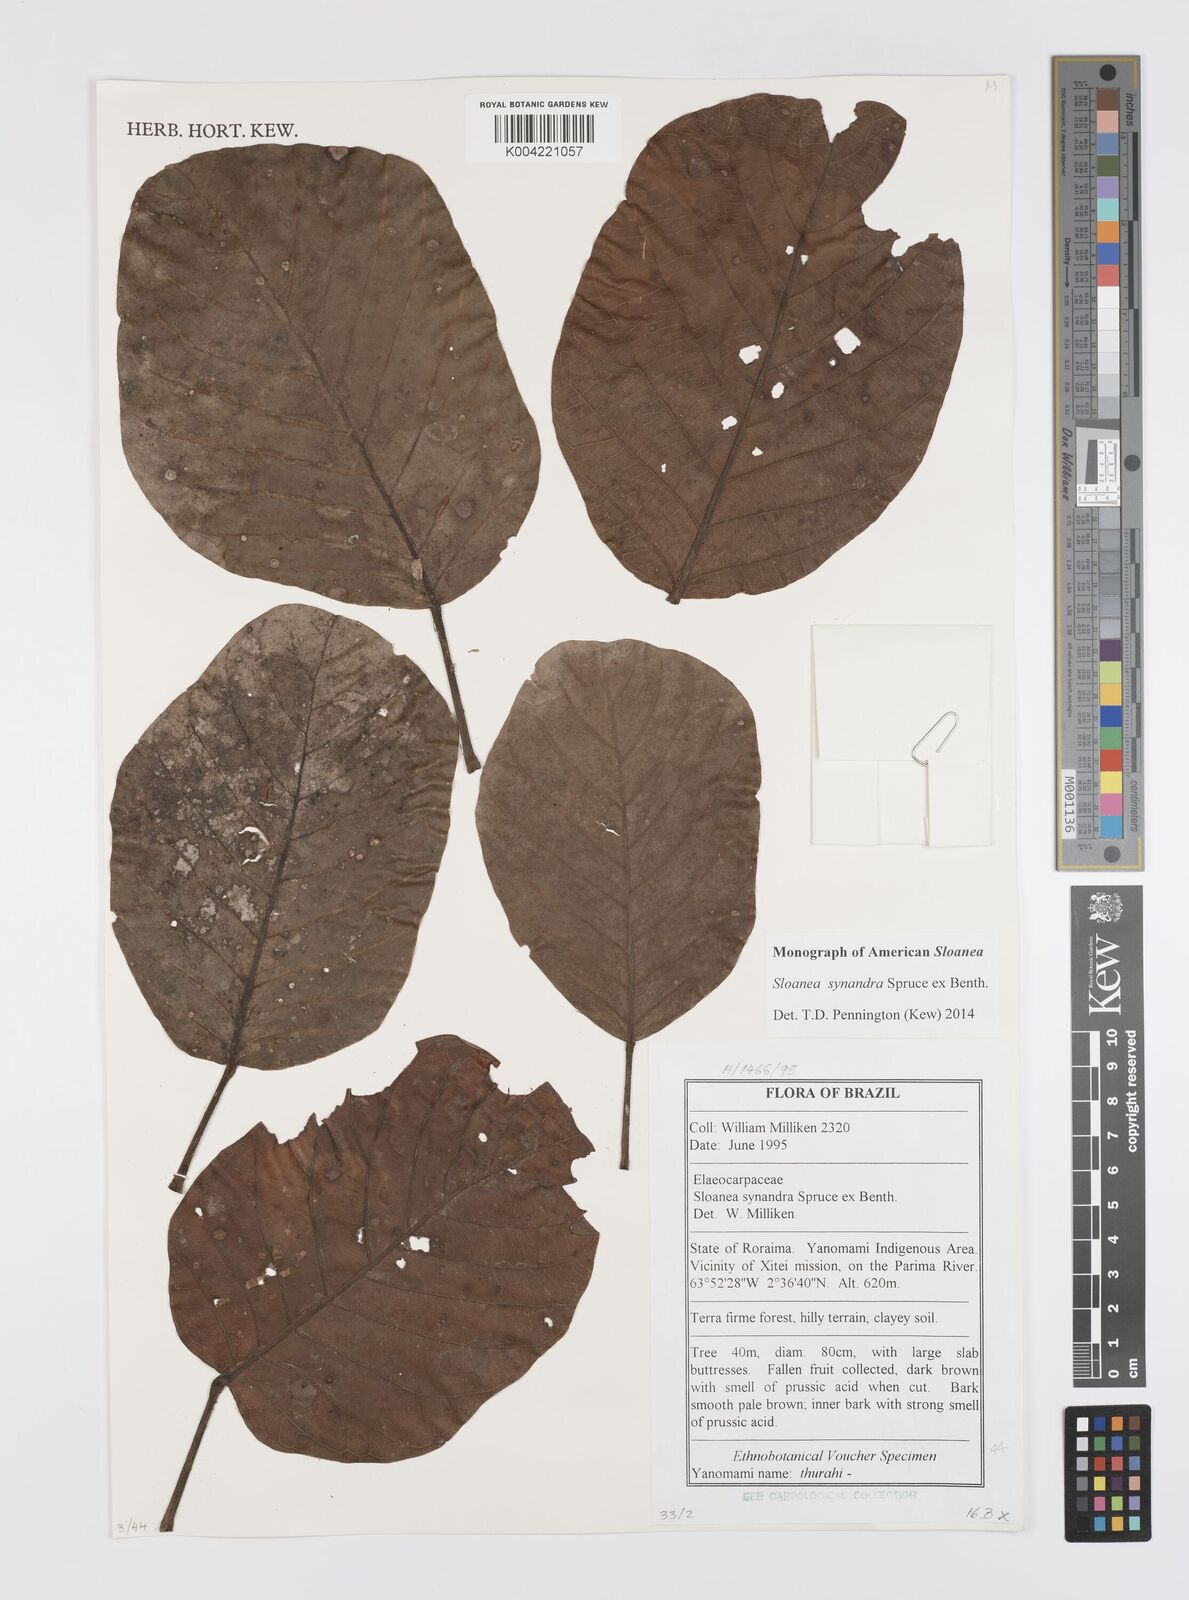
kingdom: Plantae
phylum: Tracheophyta
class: Magnoliopsida
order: Oxalidales
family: Elaeocarpaceae
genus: Sloanea
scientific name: Sloanea synandra
